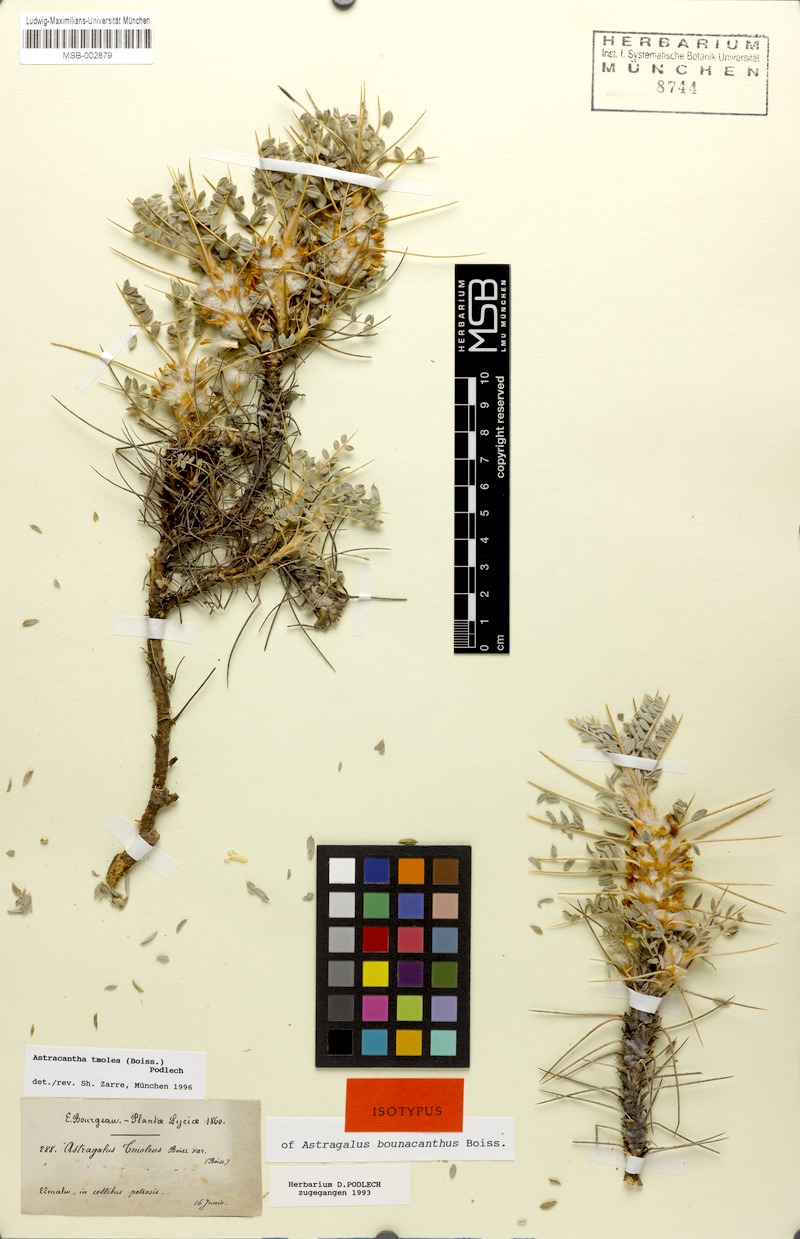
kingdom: Plantae
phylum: Tracheophyta
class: Magnoliopsida
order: Fabales
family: Fabaceae
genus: Astragalus
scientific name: Astragalus tmoleus
